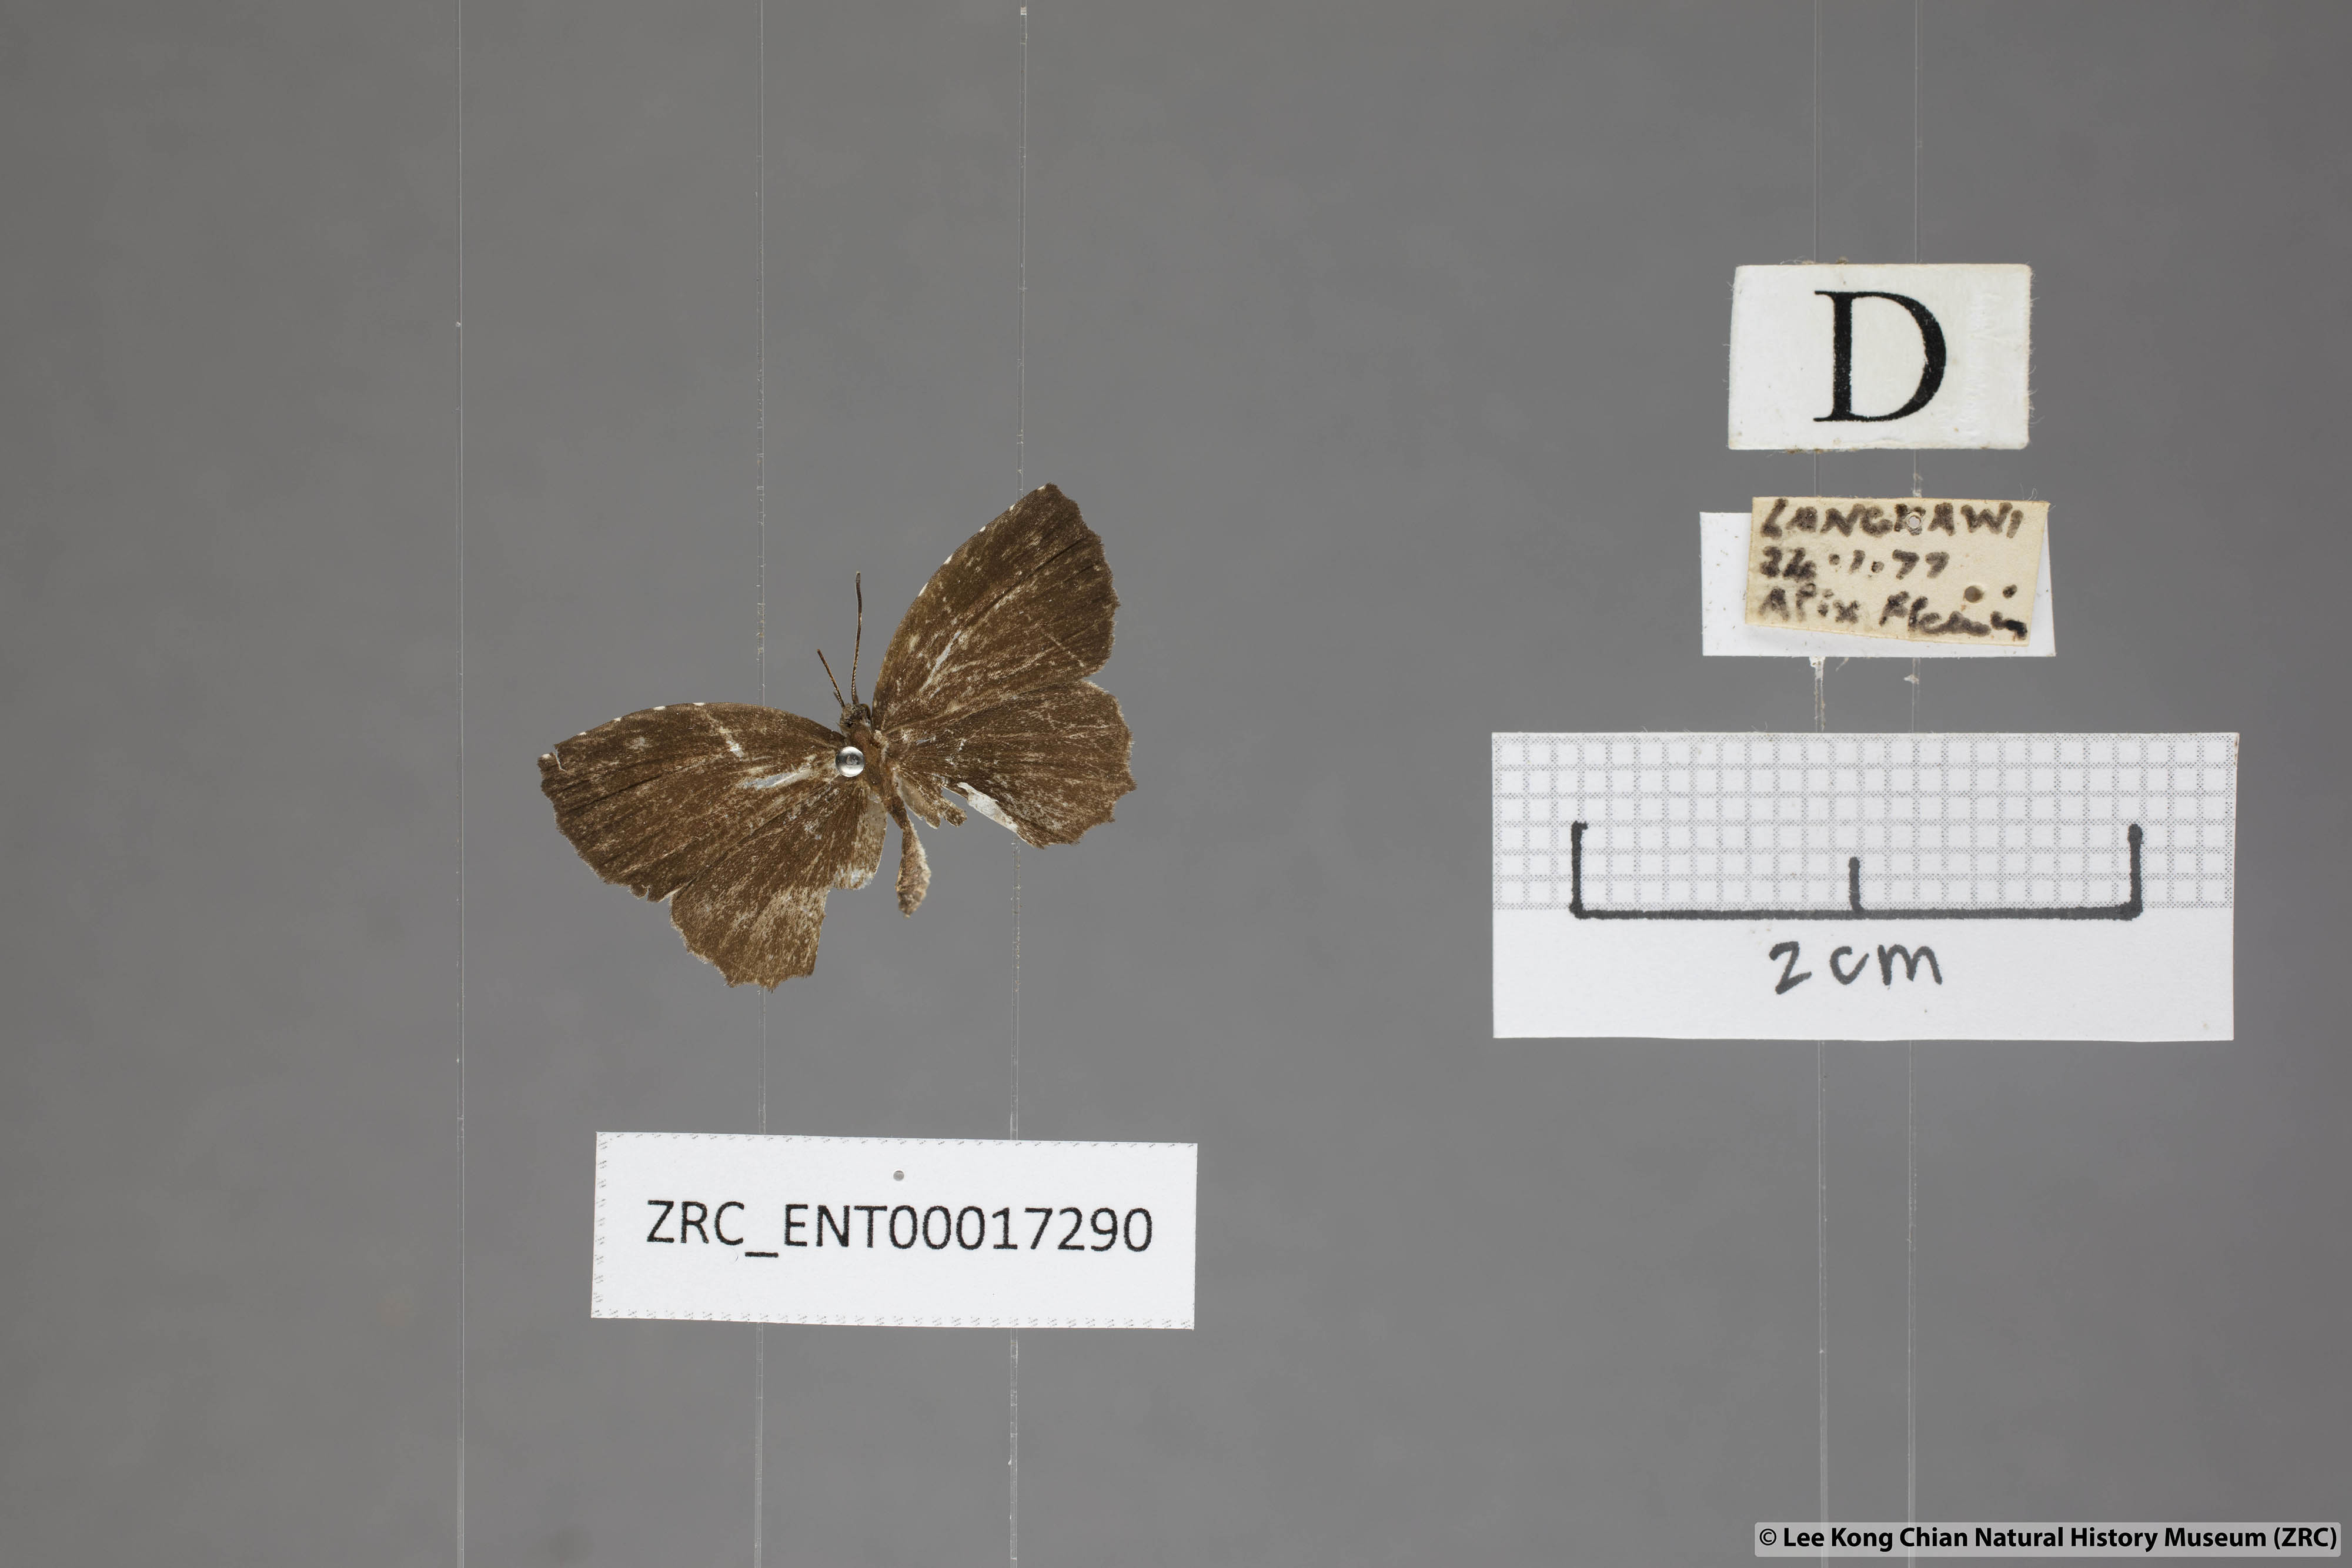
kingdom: Animalia
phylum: Arthropoda
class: Insecta
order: Lepidoptera
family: Lycaenidae
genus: Allotinus
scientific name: Allotinus substrigosa
